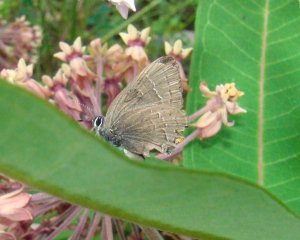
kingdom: Animalia
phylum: Arthropoda
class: Insecta
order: Lepidoptera
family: Lycaenidae
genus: Satyrium
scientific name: Satyrium calanus
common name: Banded Hairstreak
